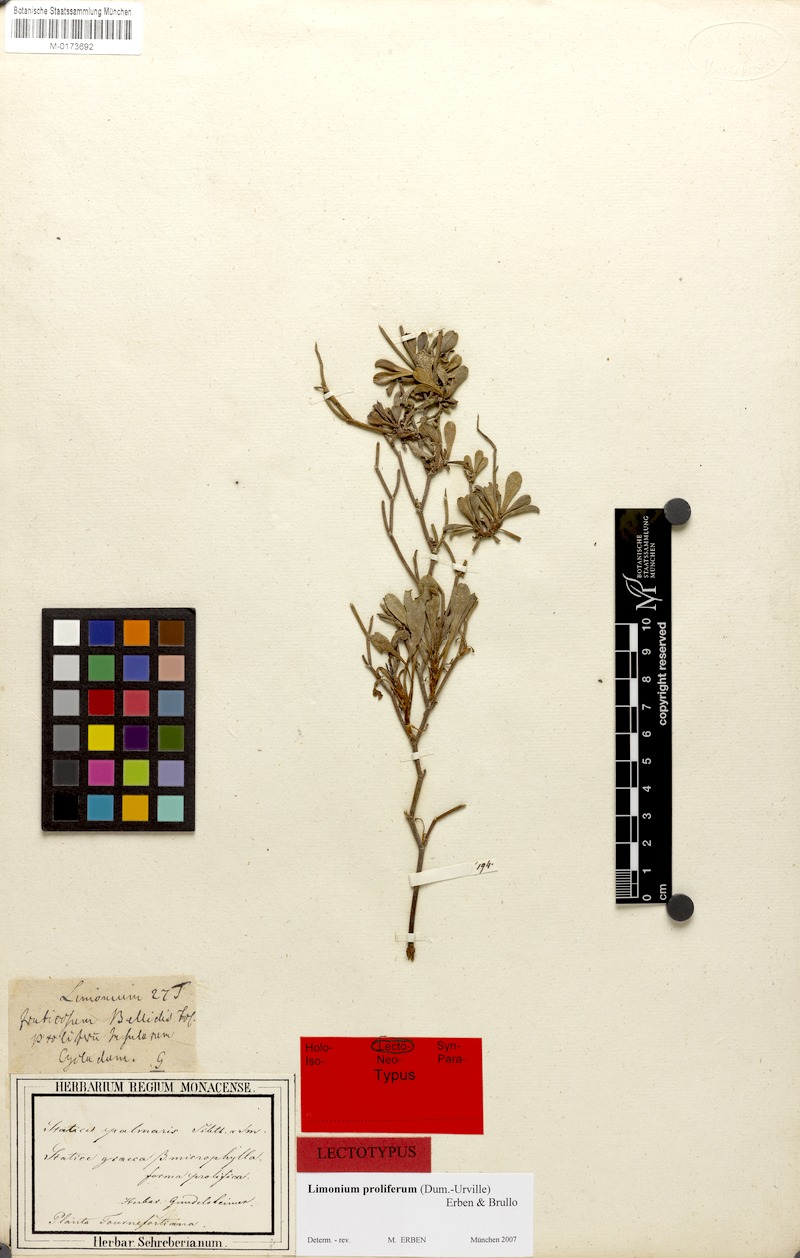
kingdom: Plantae
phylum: Tracheophyta
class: Magnoliopsida
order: Caryophyllales
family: Plumbaginaceae
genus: Limonium
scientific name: Limonium proliferum
